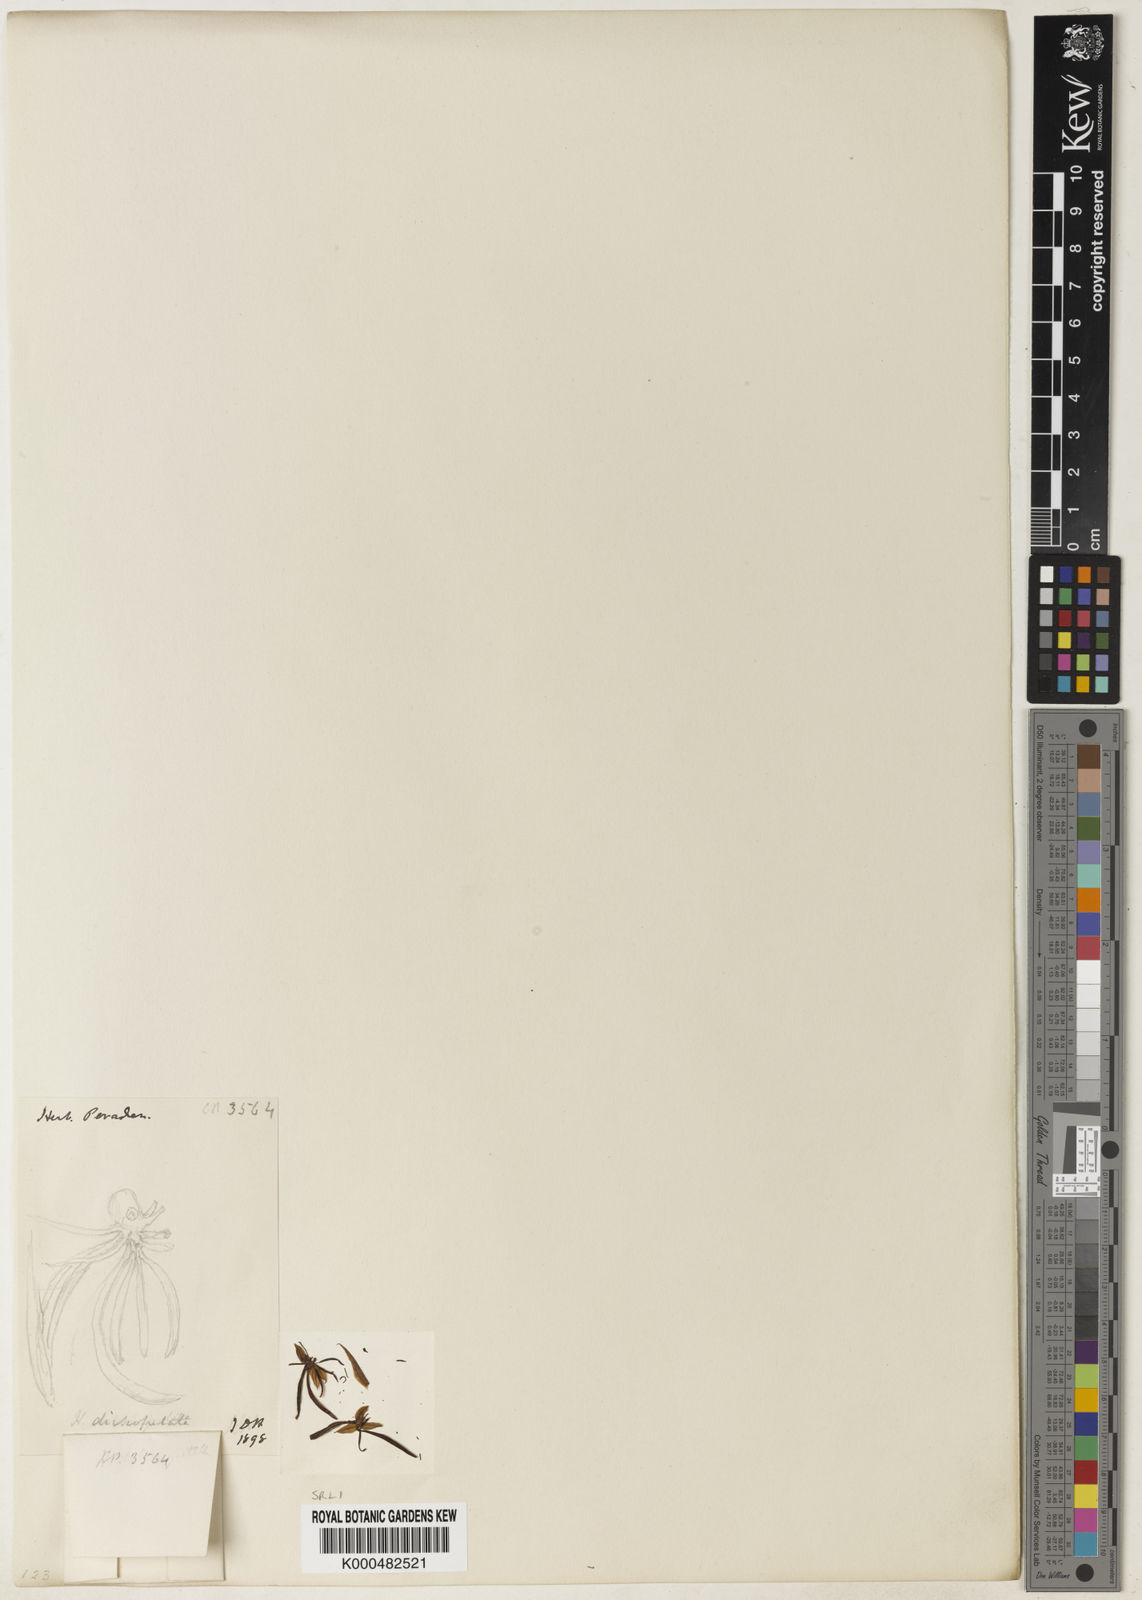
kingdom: Plantae
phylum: Tracheophyta
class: Liliopsida
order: Asparagales
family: Orchidaceae
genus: Habenaria
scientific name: Habenaria dichopetala
